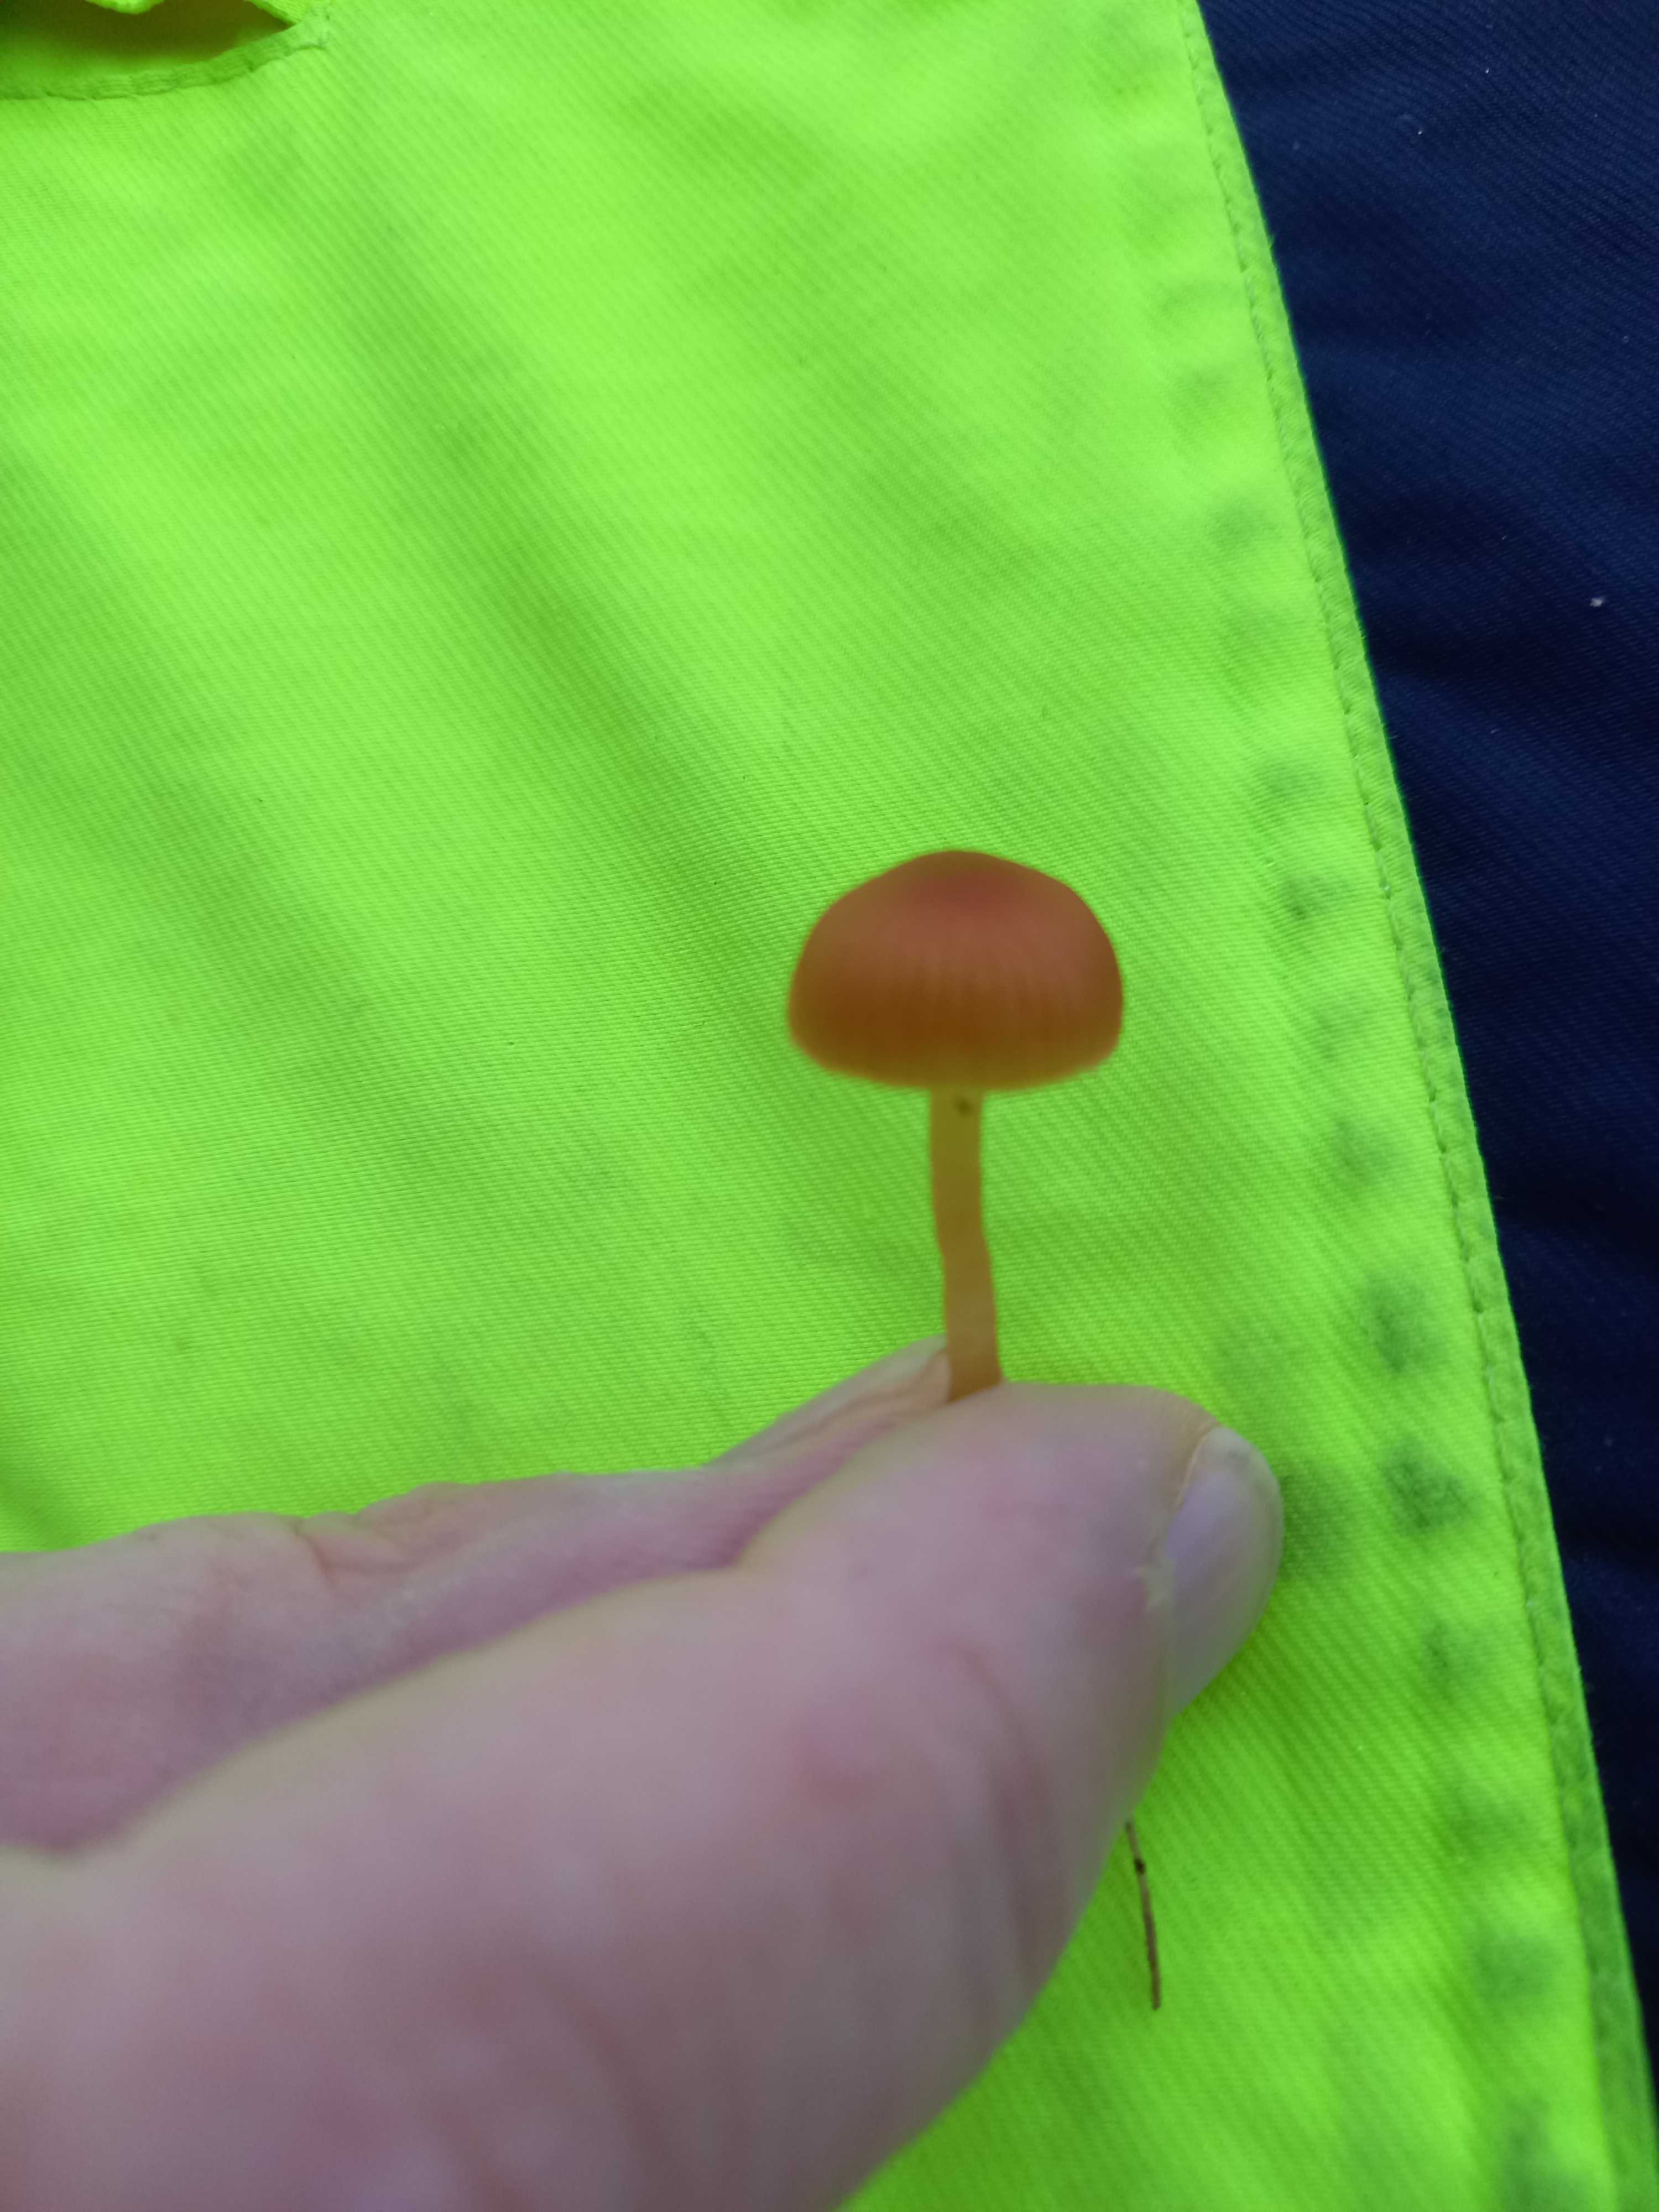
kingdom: Fungi
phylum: Basidiomycota
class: Agaricomycetes
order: Agaricales
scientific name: Agaricales
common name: champignonordenen
